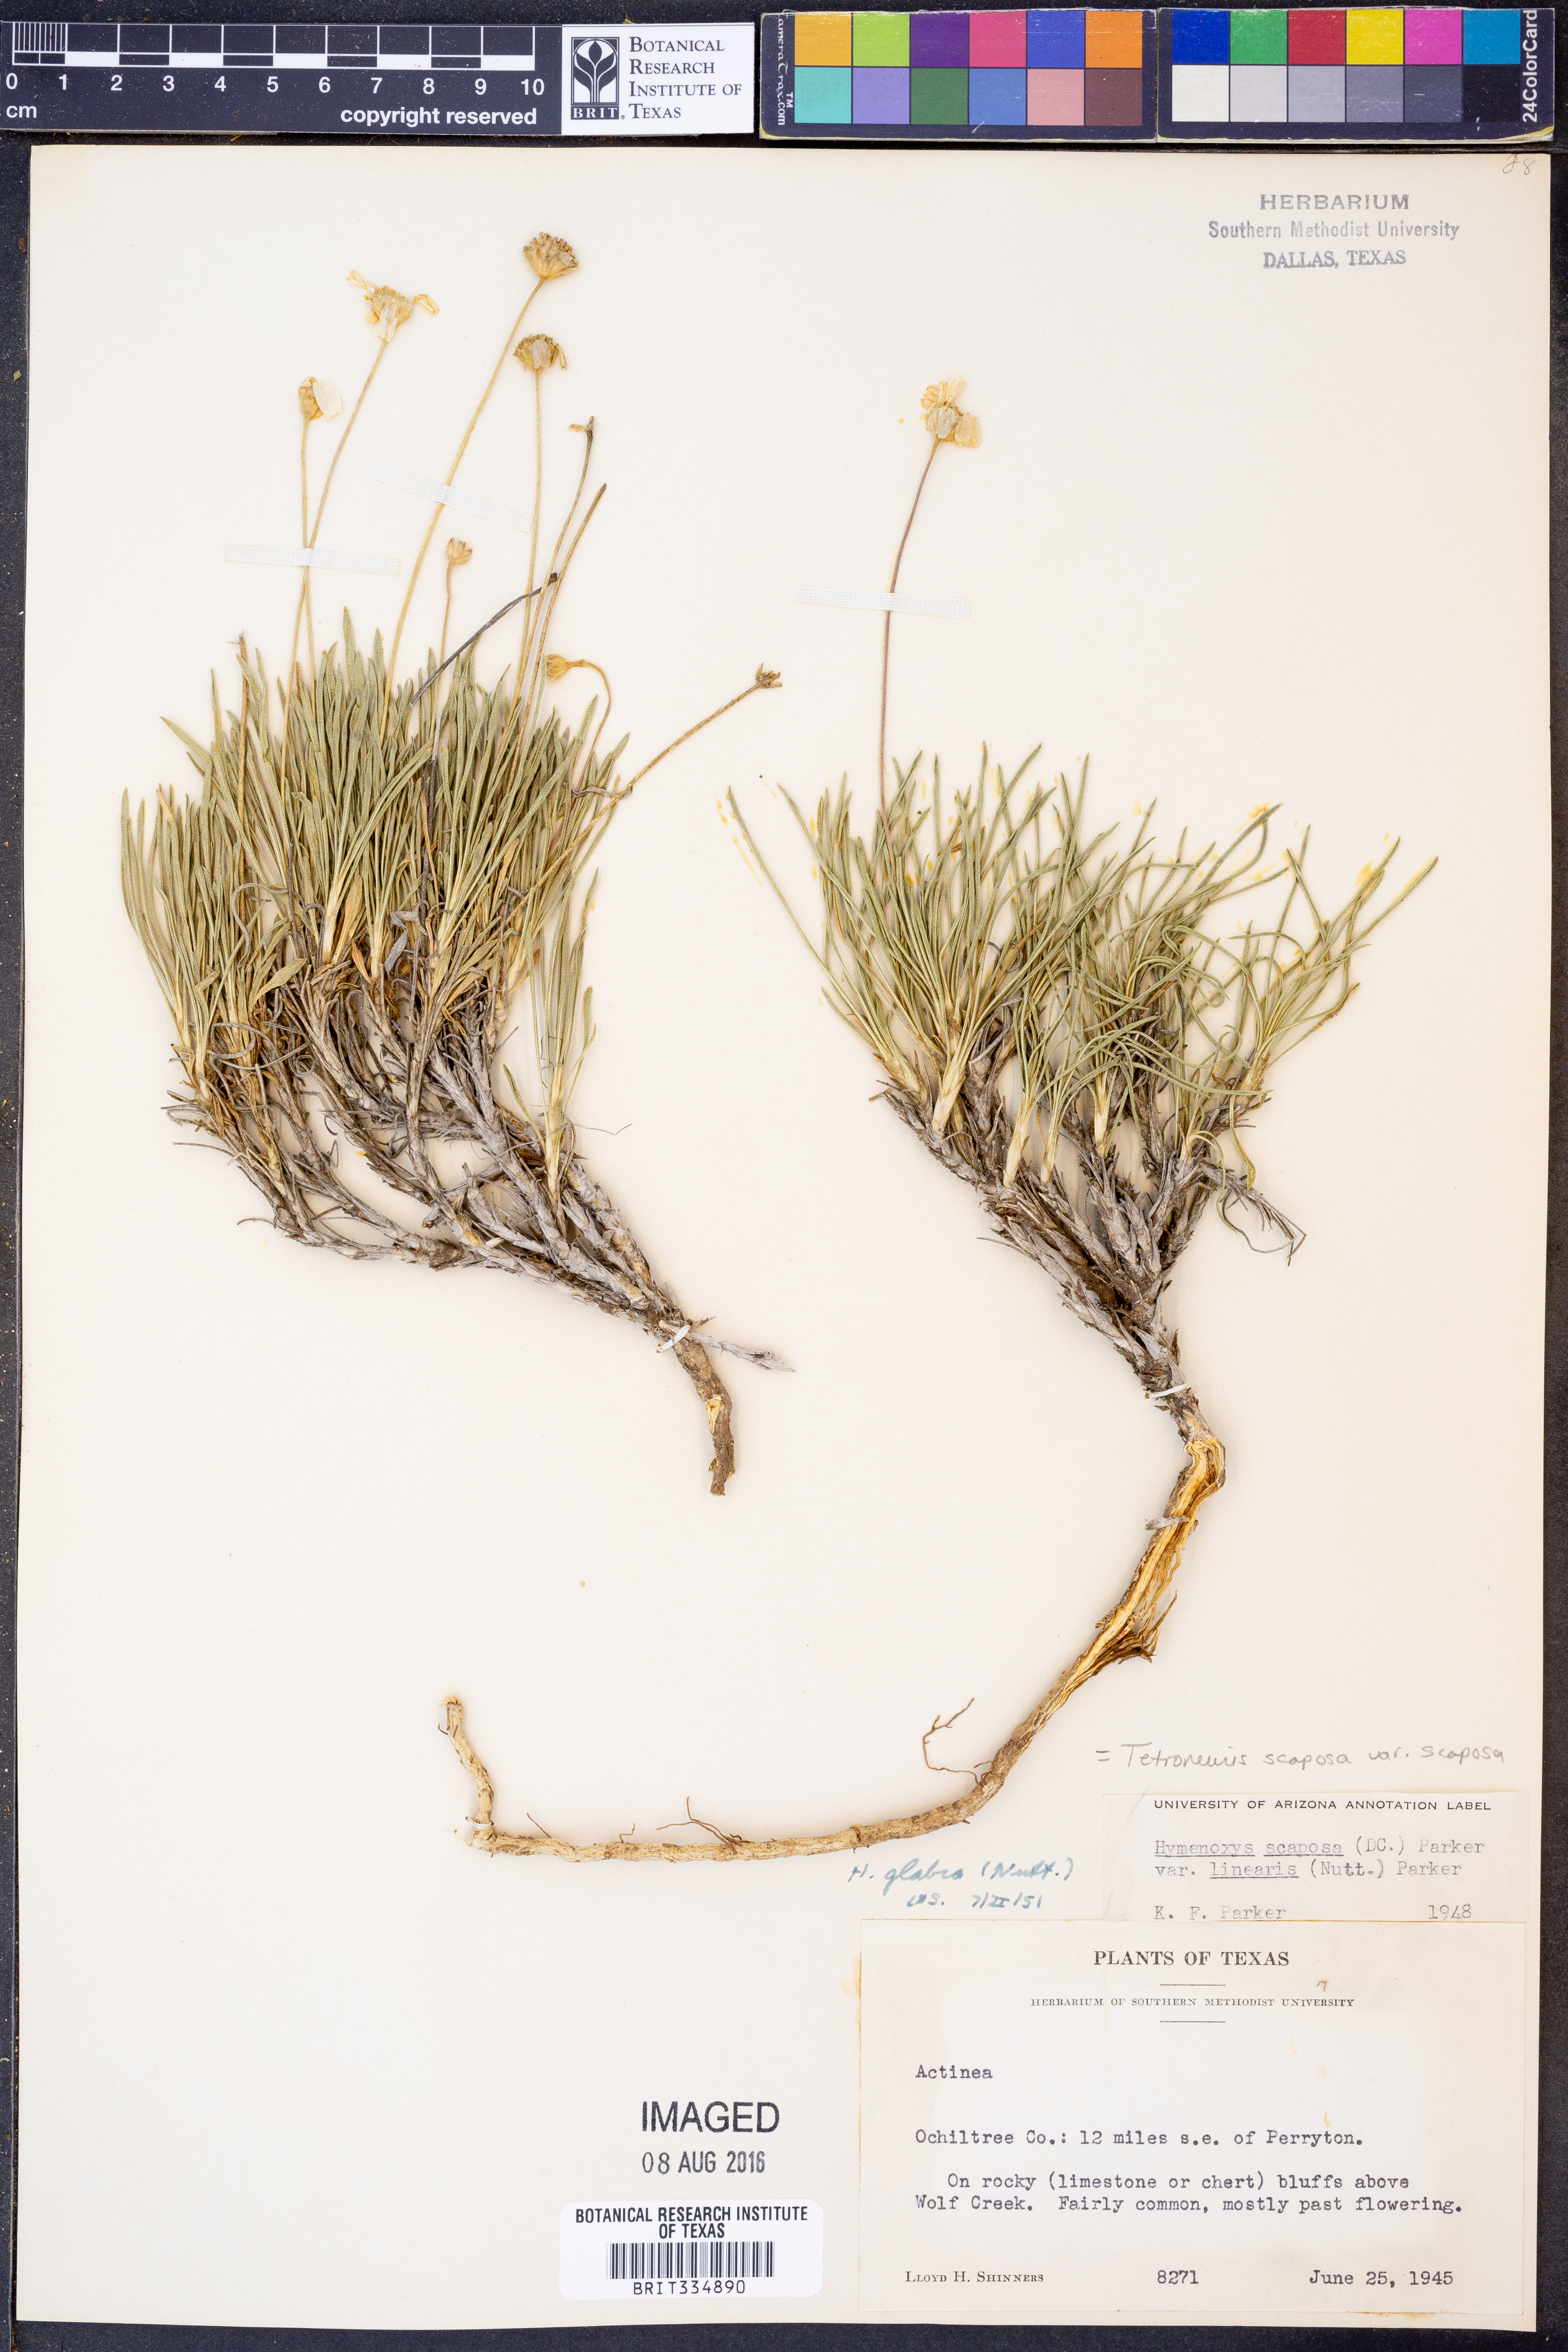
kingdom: Plantae
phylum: Tracheophyta
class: Magnoliopsida
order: Asterales
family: Asteraceae
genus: Tetraneuris
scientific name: Tetraneuris scaposa
